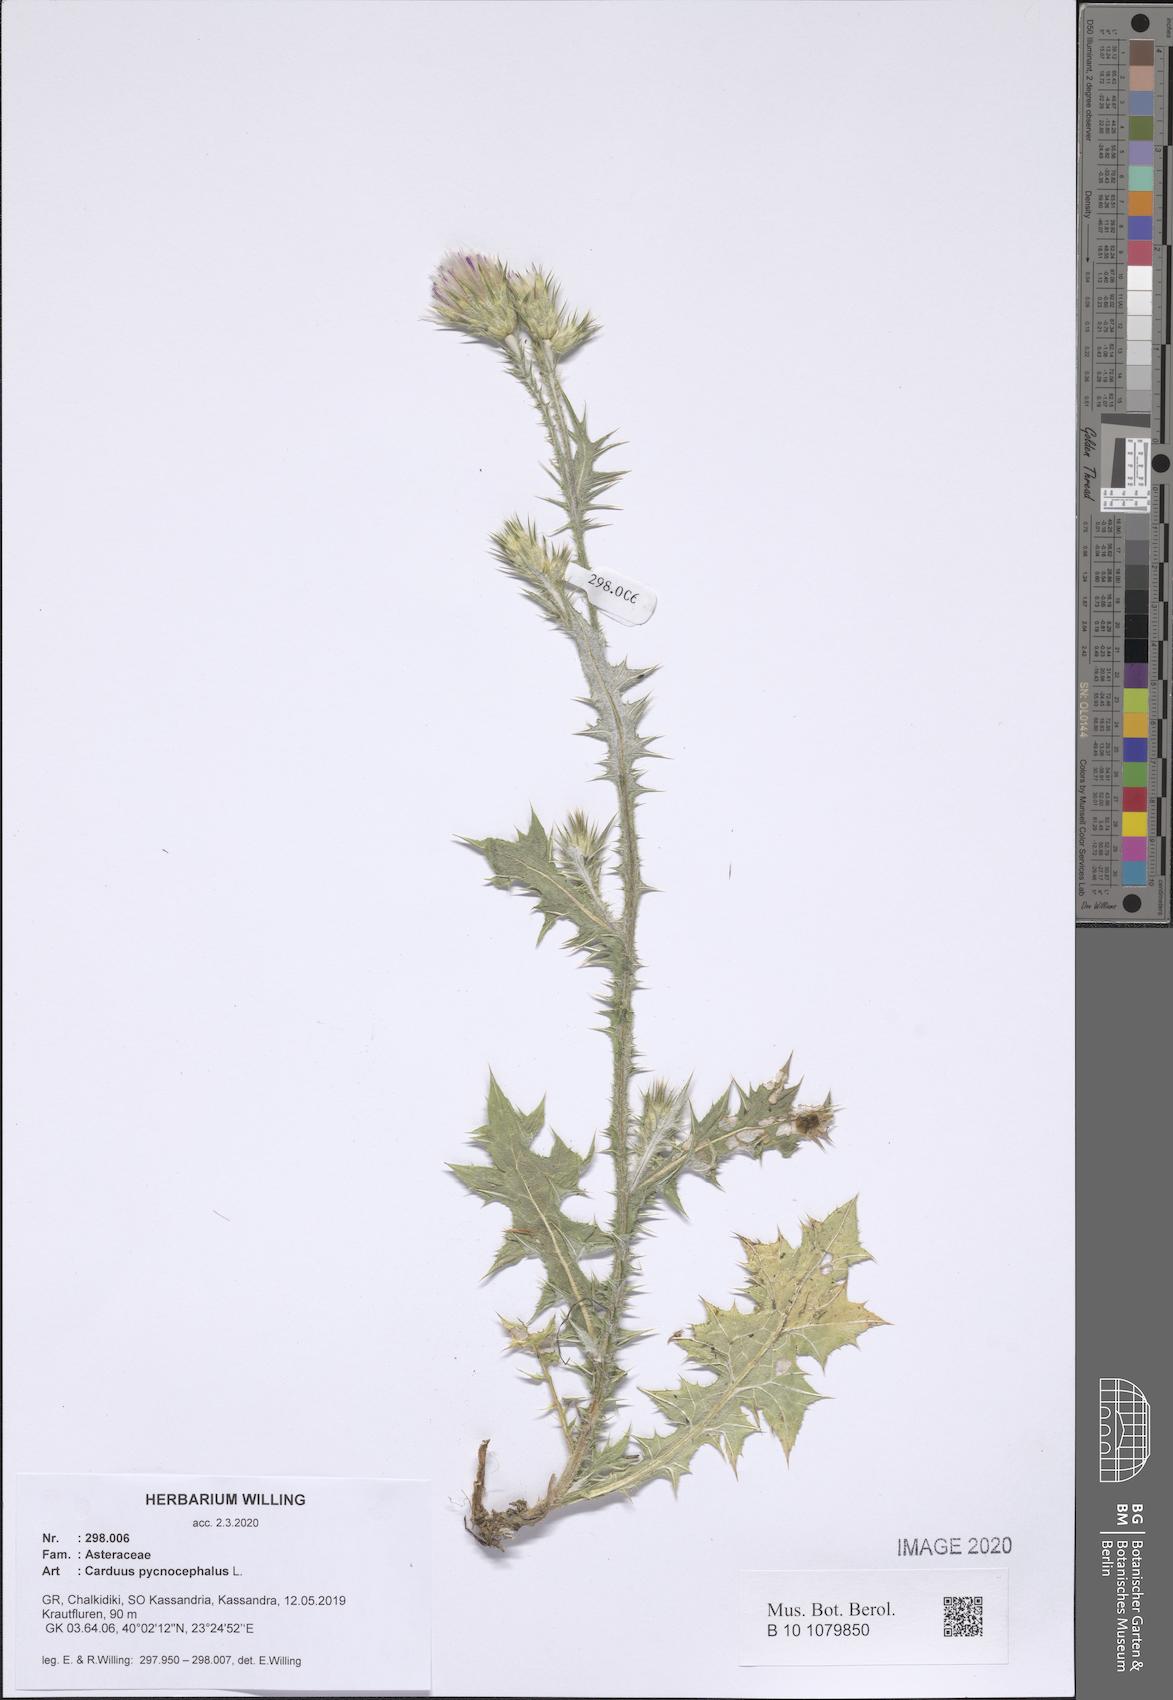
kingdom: Plantae
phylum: Tracheophyta
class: Magnoliopsida
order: Asterales
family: Asteraceae
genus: Carduus
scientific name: Carduus pycnocephalus
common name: Plymouth thistle
